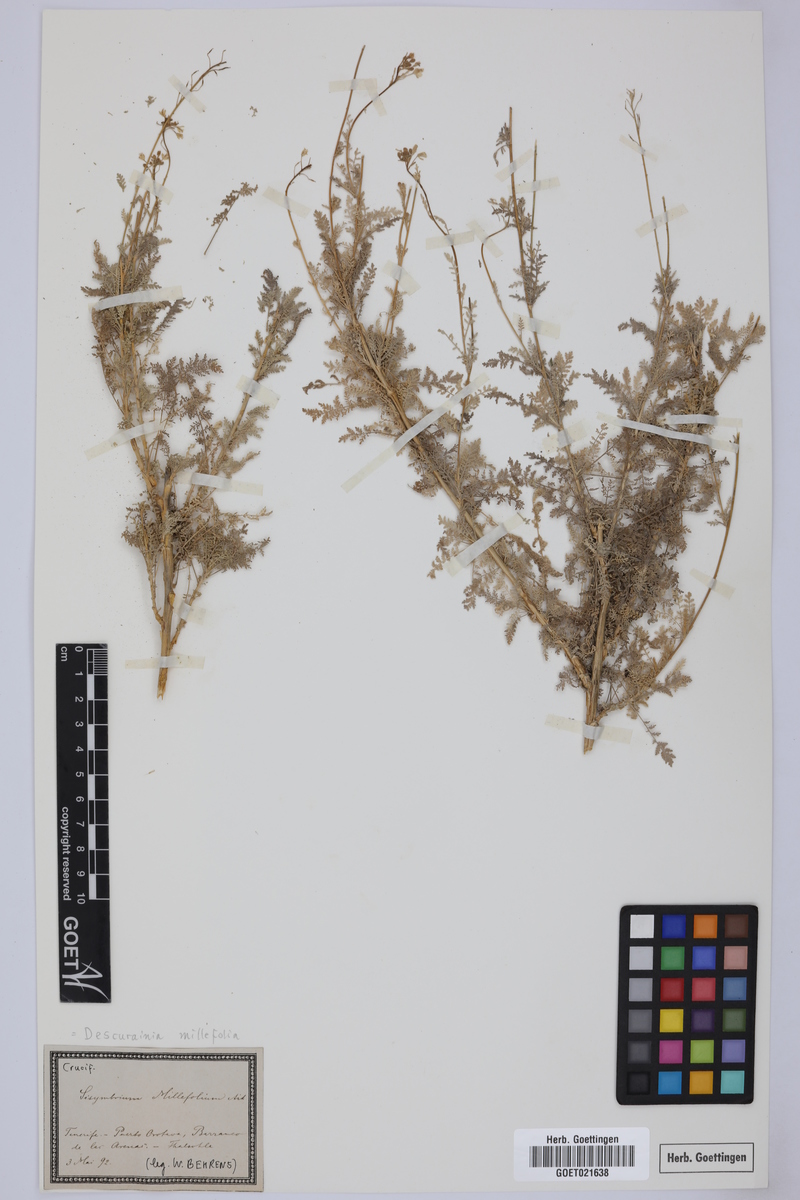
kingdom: Plantae
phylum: Tracheophyta
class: Magnoliopsida
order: Brassicales
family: Brassicaceae
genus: Descurainia
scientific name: Descurainia millefolia
